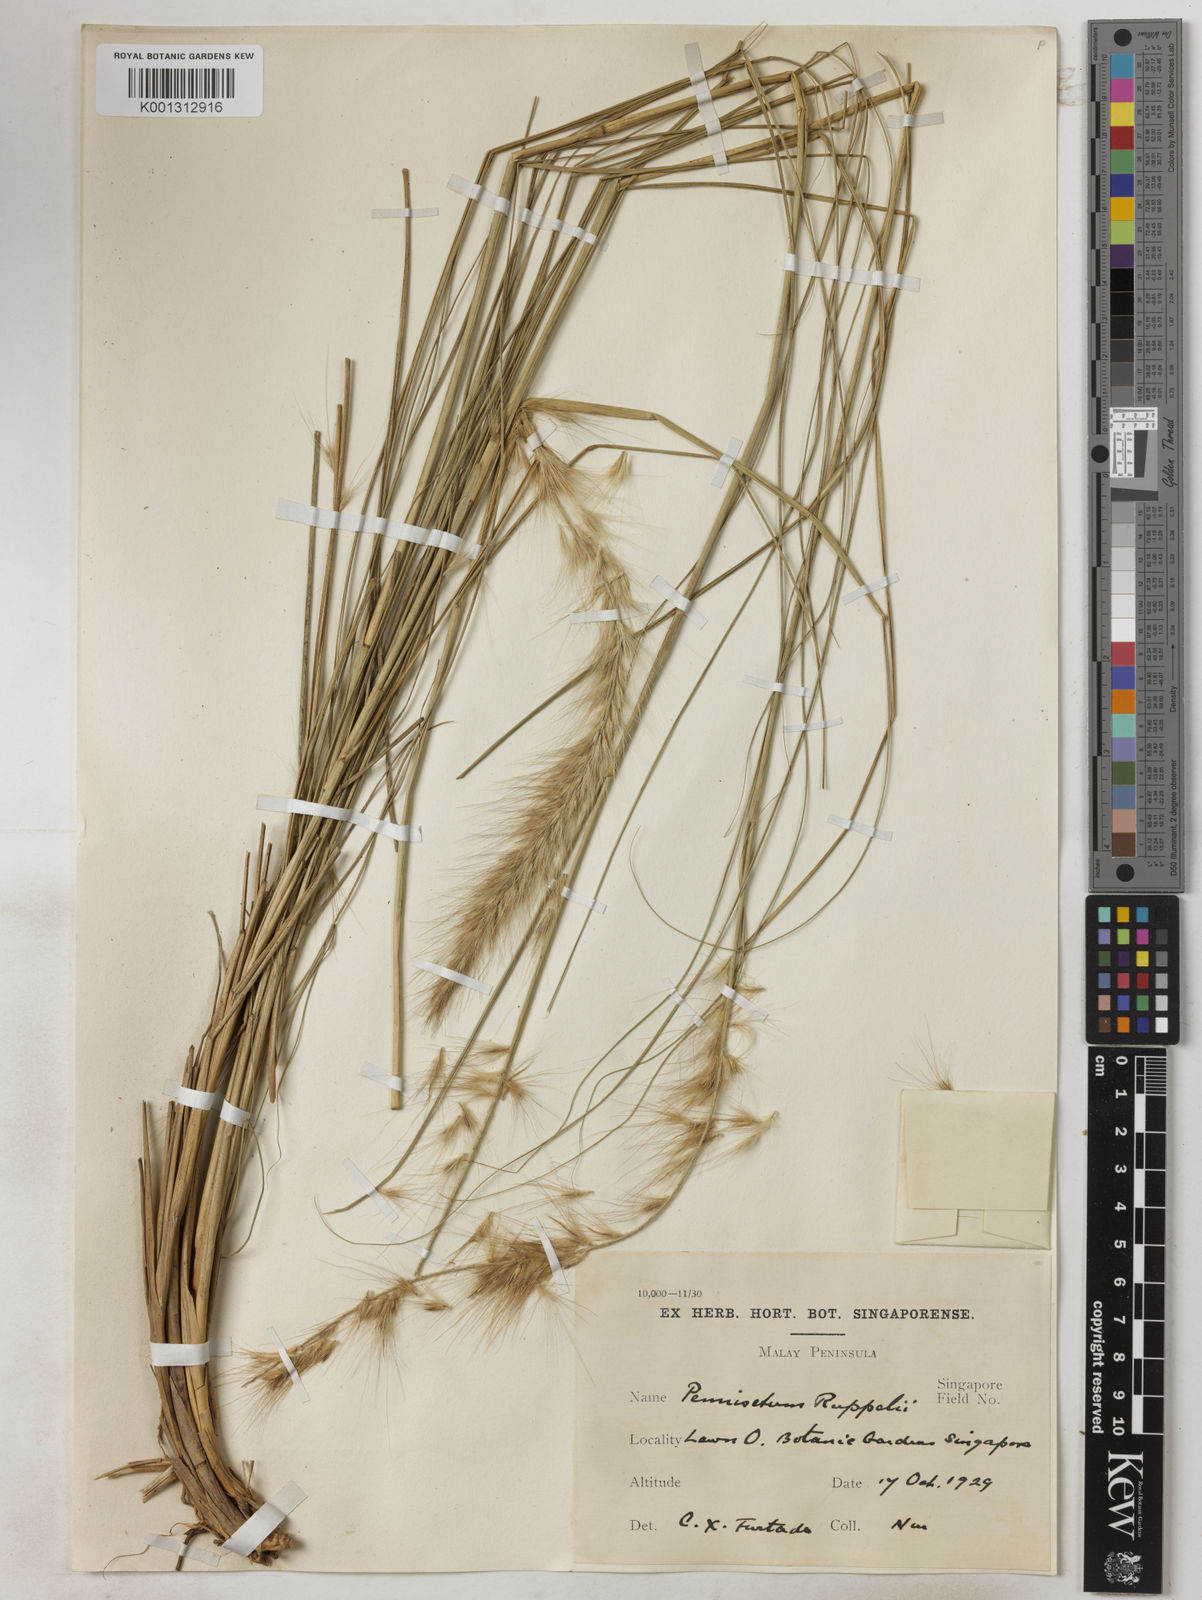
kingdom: Plantae
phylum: Tracheophyta
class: Liliopsida
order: Poales
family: Poaceae
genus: Cenchrus
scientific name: Cenchrus setaceus
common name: Crimson fountaingrass
